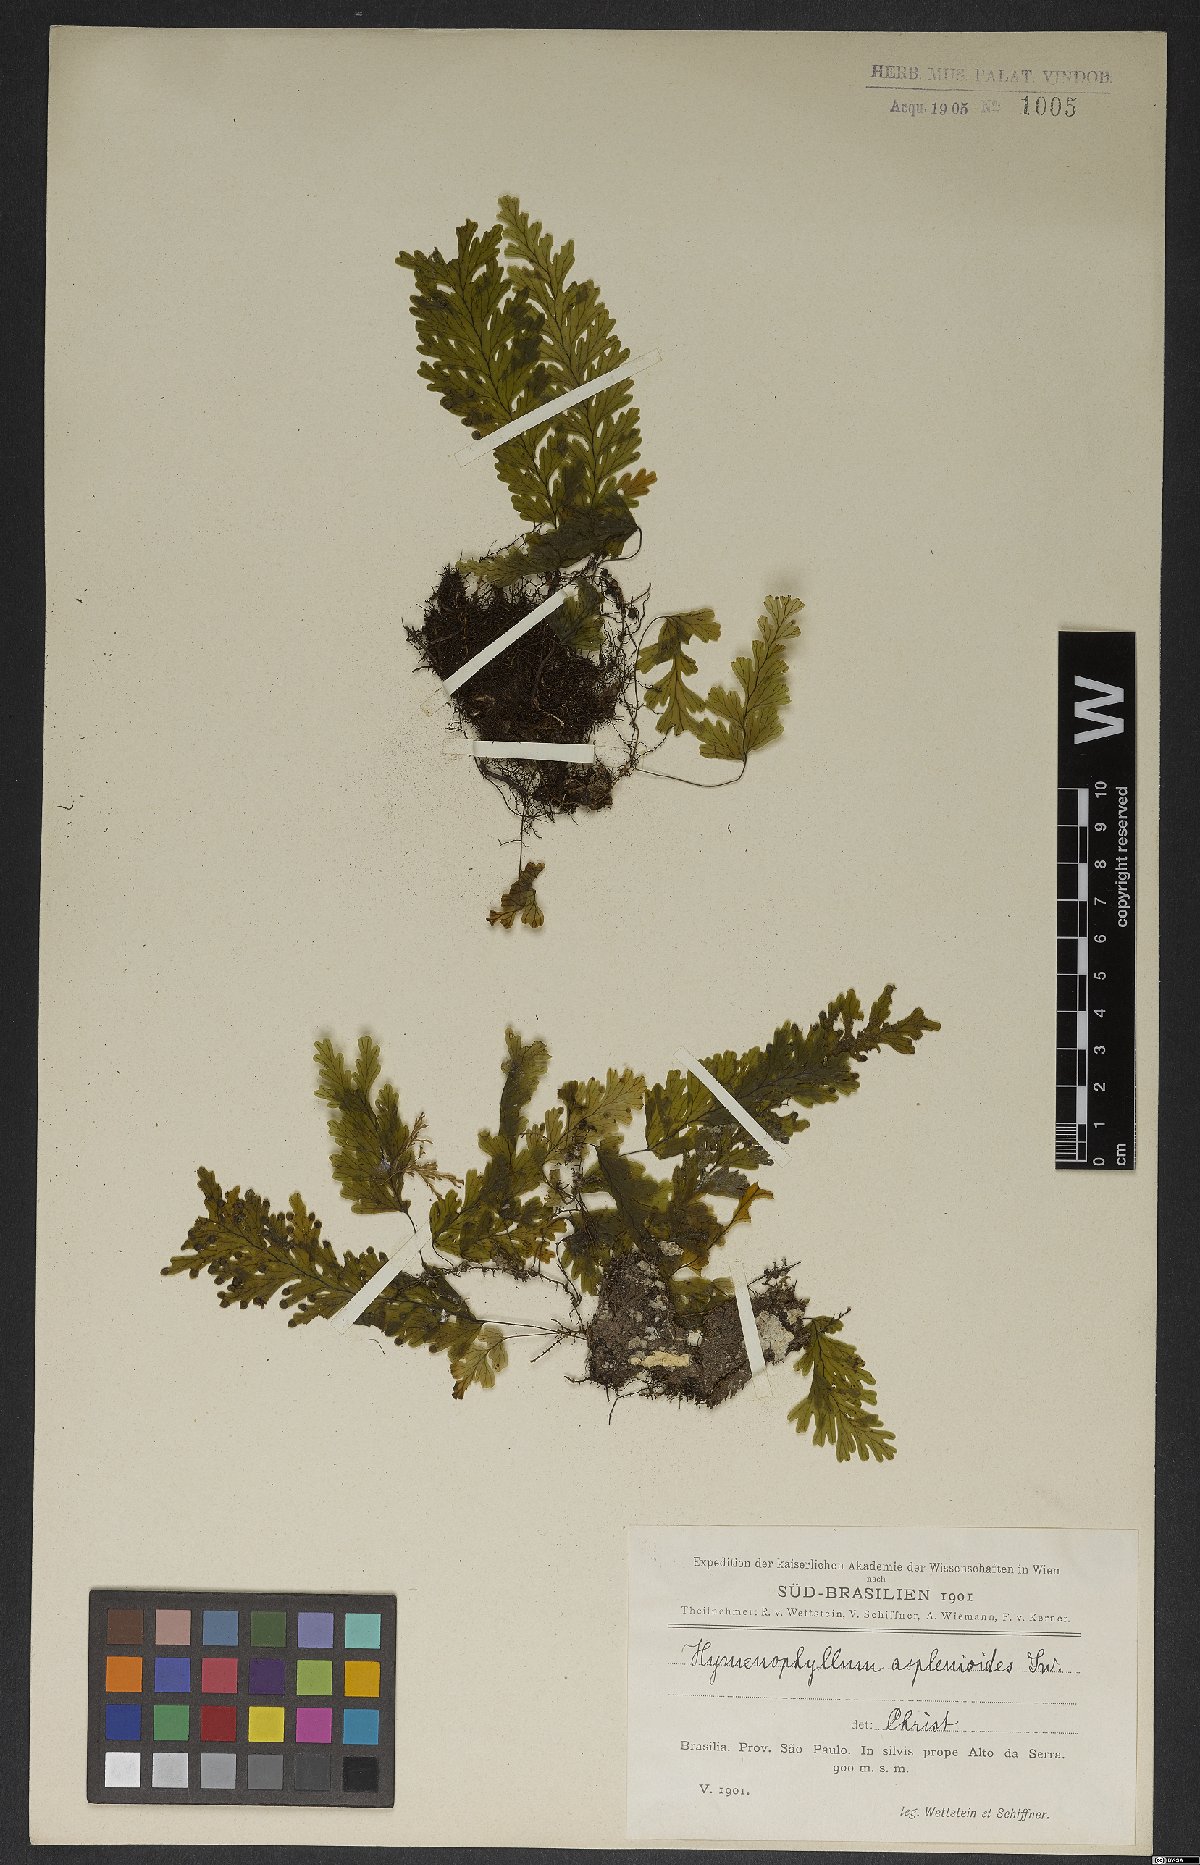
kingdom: Plantae
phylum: Tracheophyta
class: Polypodiopsida
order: Hymenophyllales
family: Hymenophyllaceae
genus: Hymenophyllum
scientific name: Hymenophyllum asplenioides
